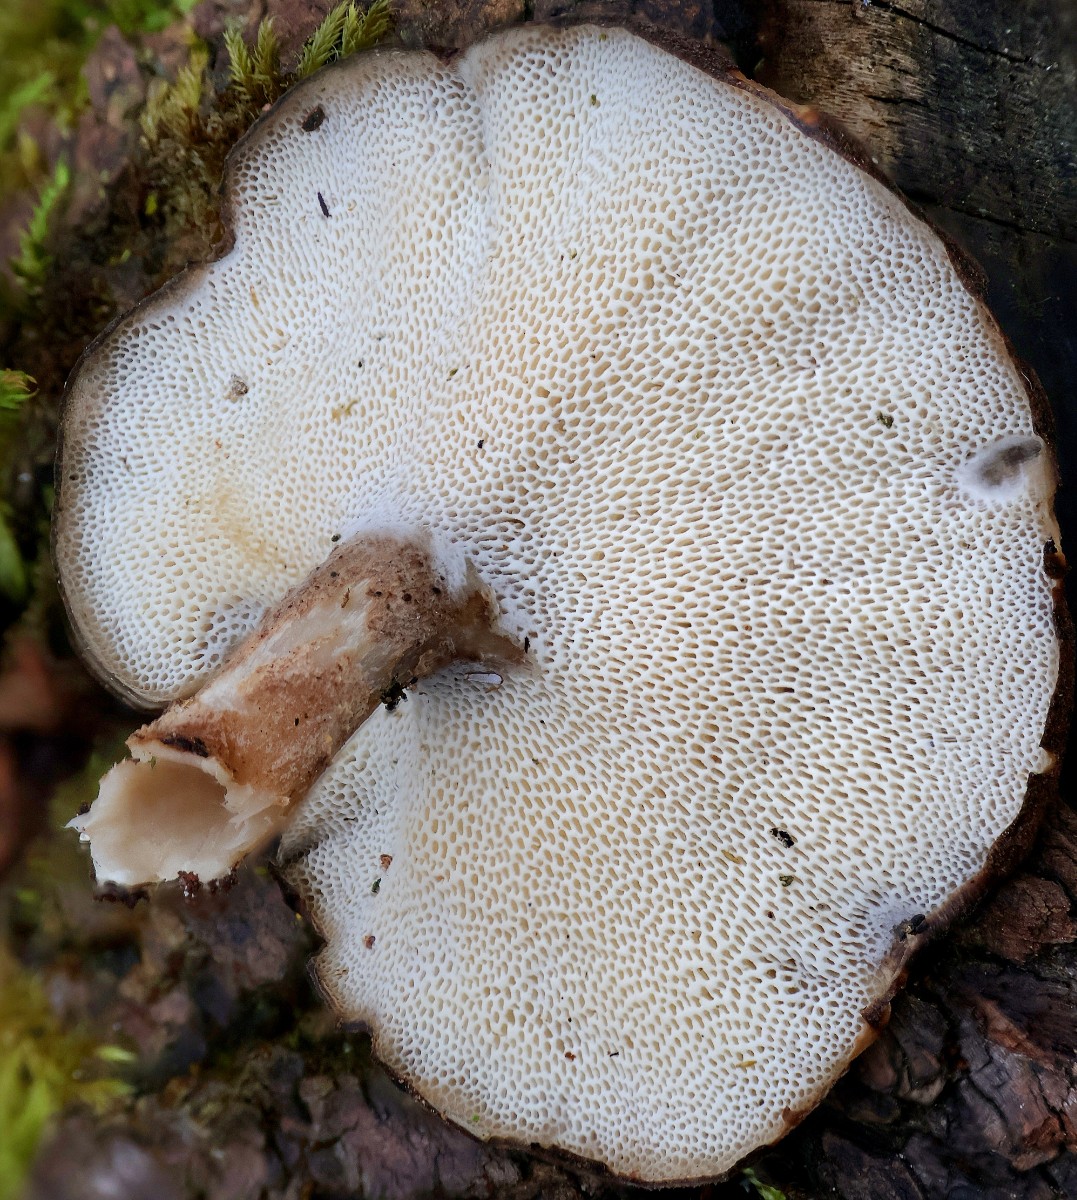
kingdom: Fungi
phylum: Basidiomycota
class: Agaricomycetes
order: Polyporales
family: Polyporaceae
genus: Lentinus
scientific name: Lentinus brumalis
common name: vinter-stilkporesvamp
